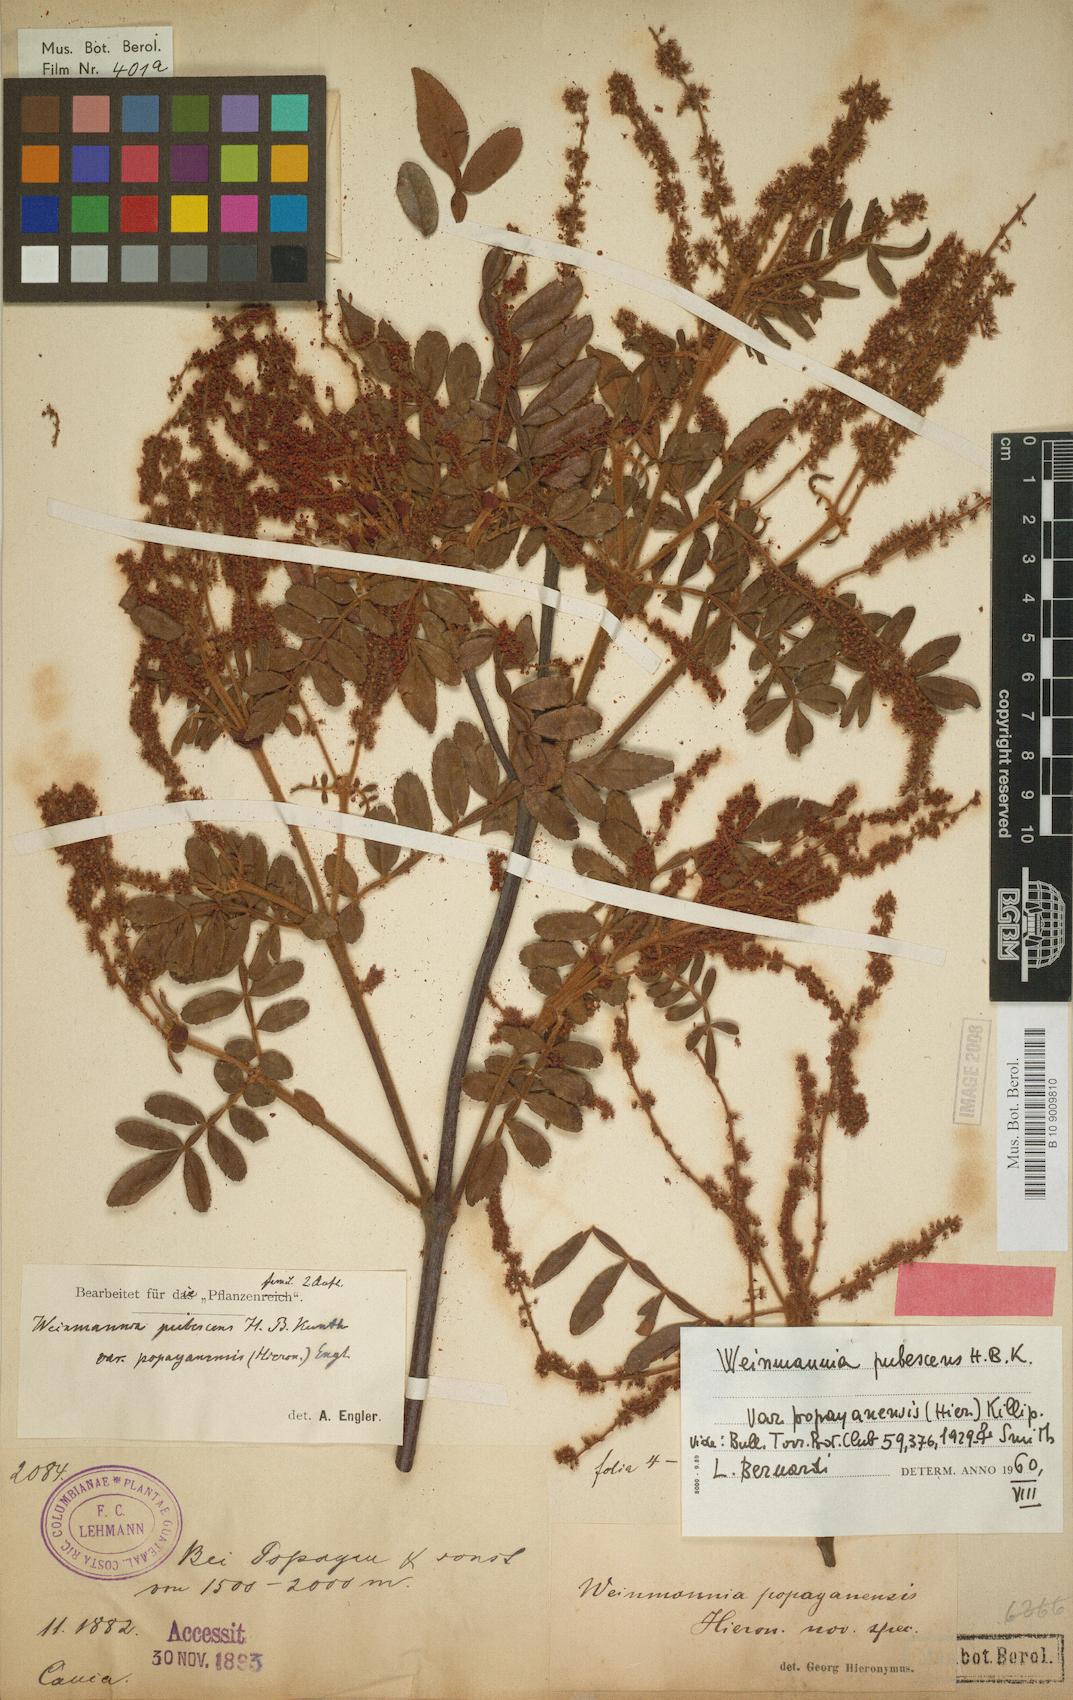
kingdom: Plantae
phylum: Tracheophyta
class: Magnoliopsida
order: Oxalidales
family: Cunoniaceae
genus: Weinmannia
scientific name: Weinmannia pubescens
